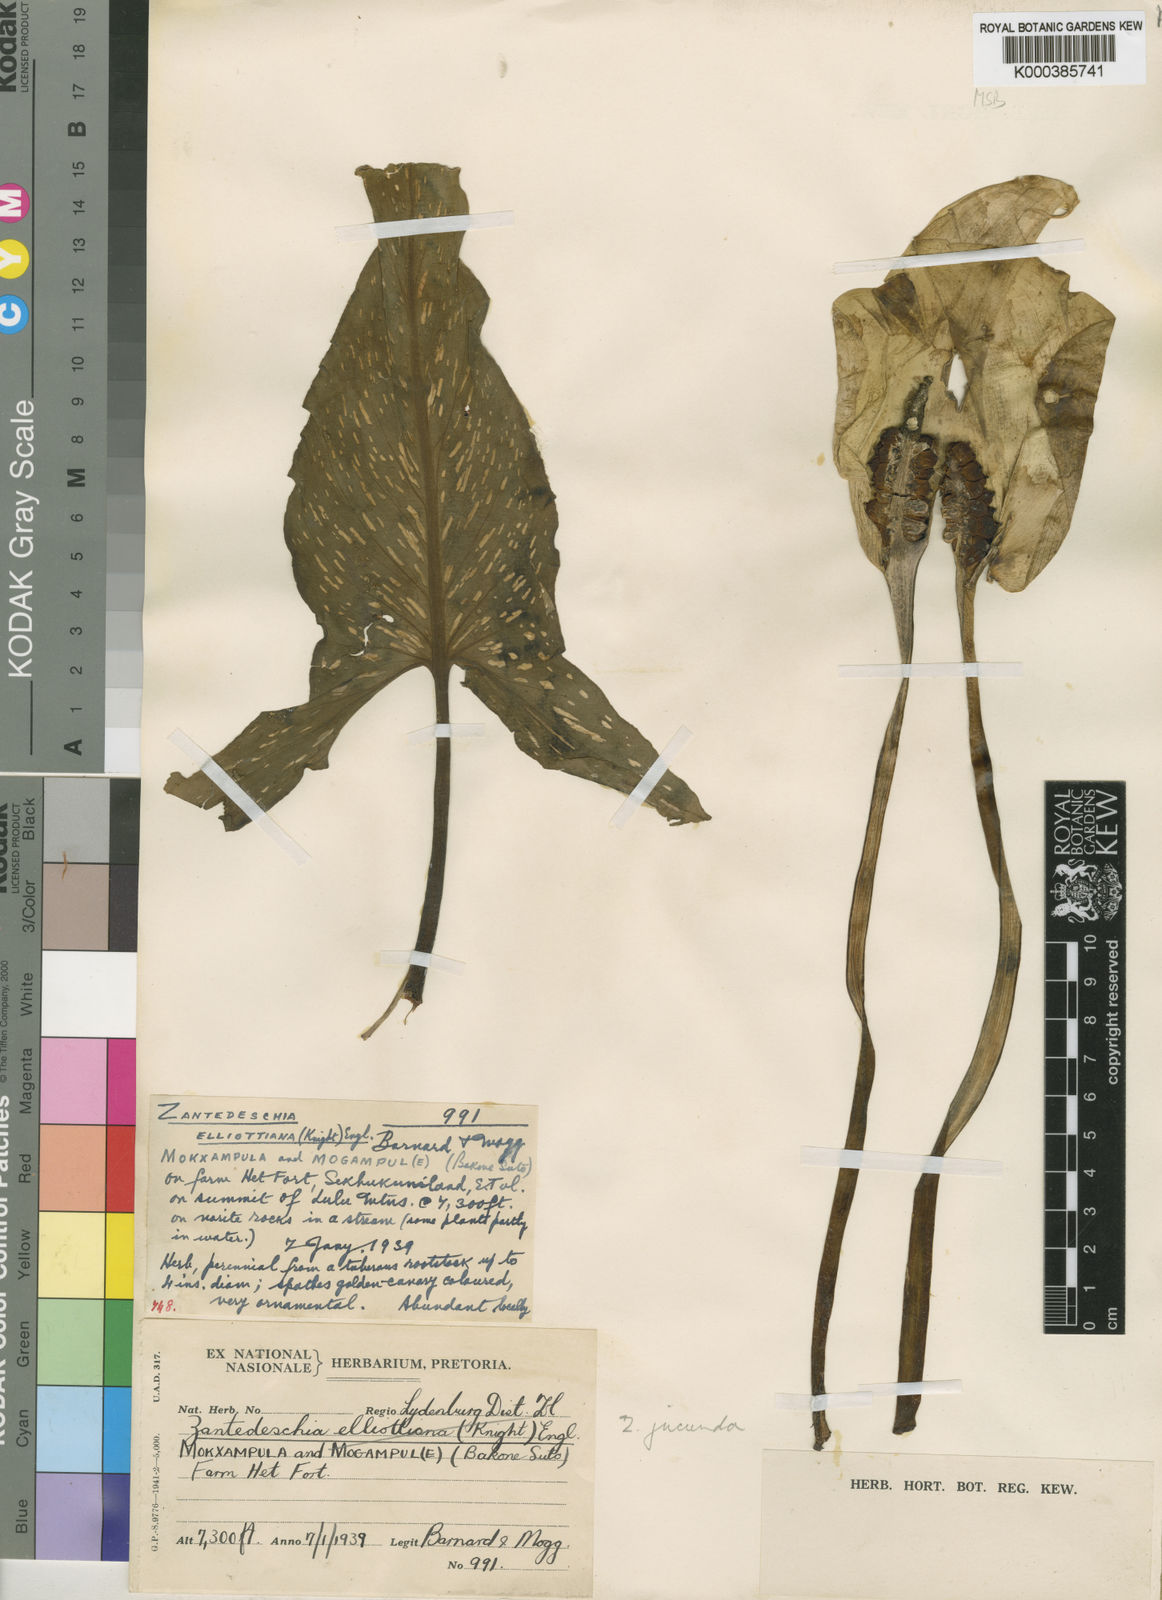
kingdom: Plantae
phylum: Tracheophyta
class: Liliopsida
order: Alismatales
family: Araceae
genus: Zantedeschia
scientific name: Zantedeschia jucunda
